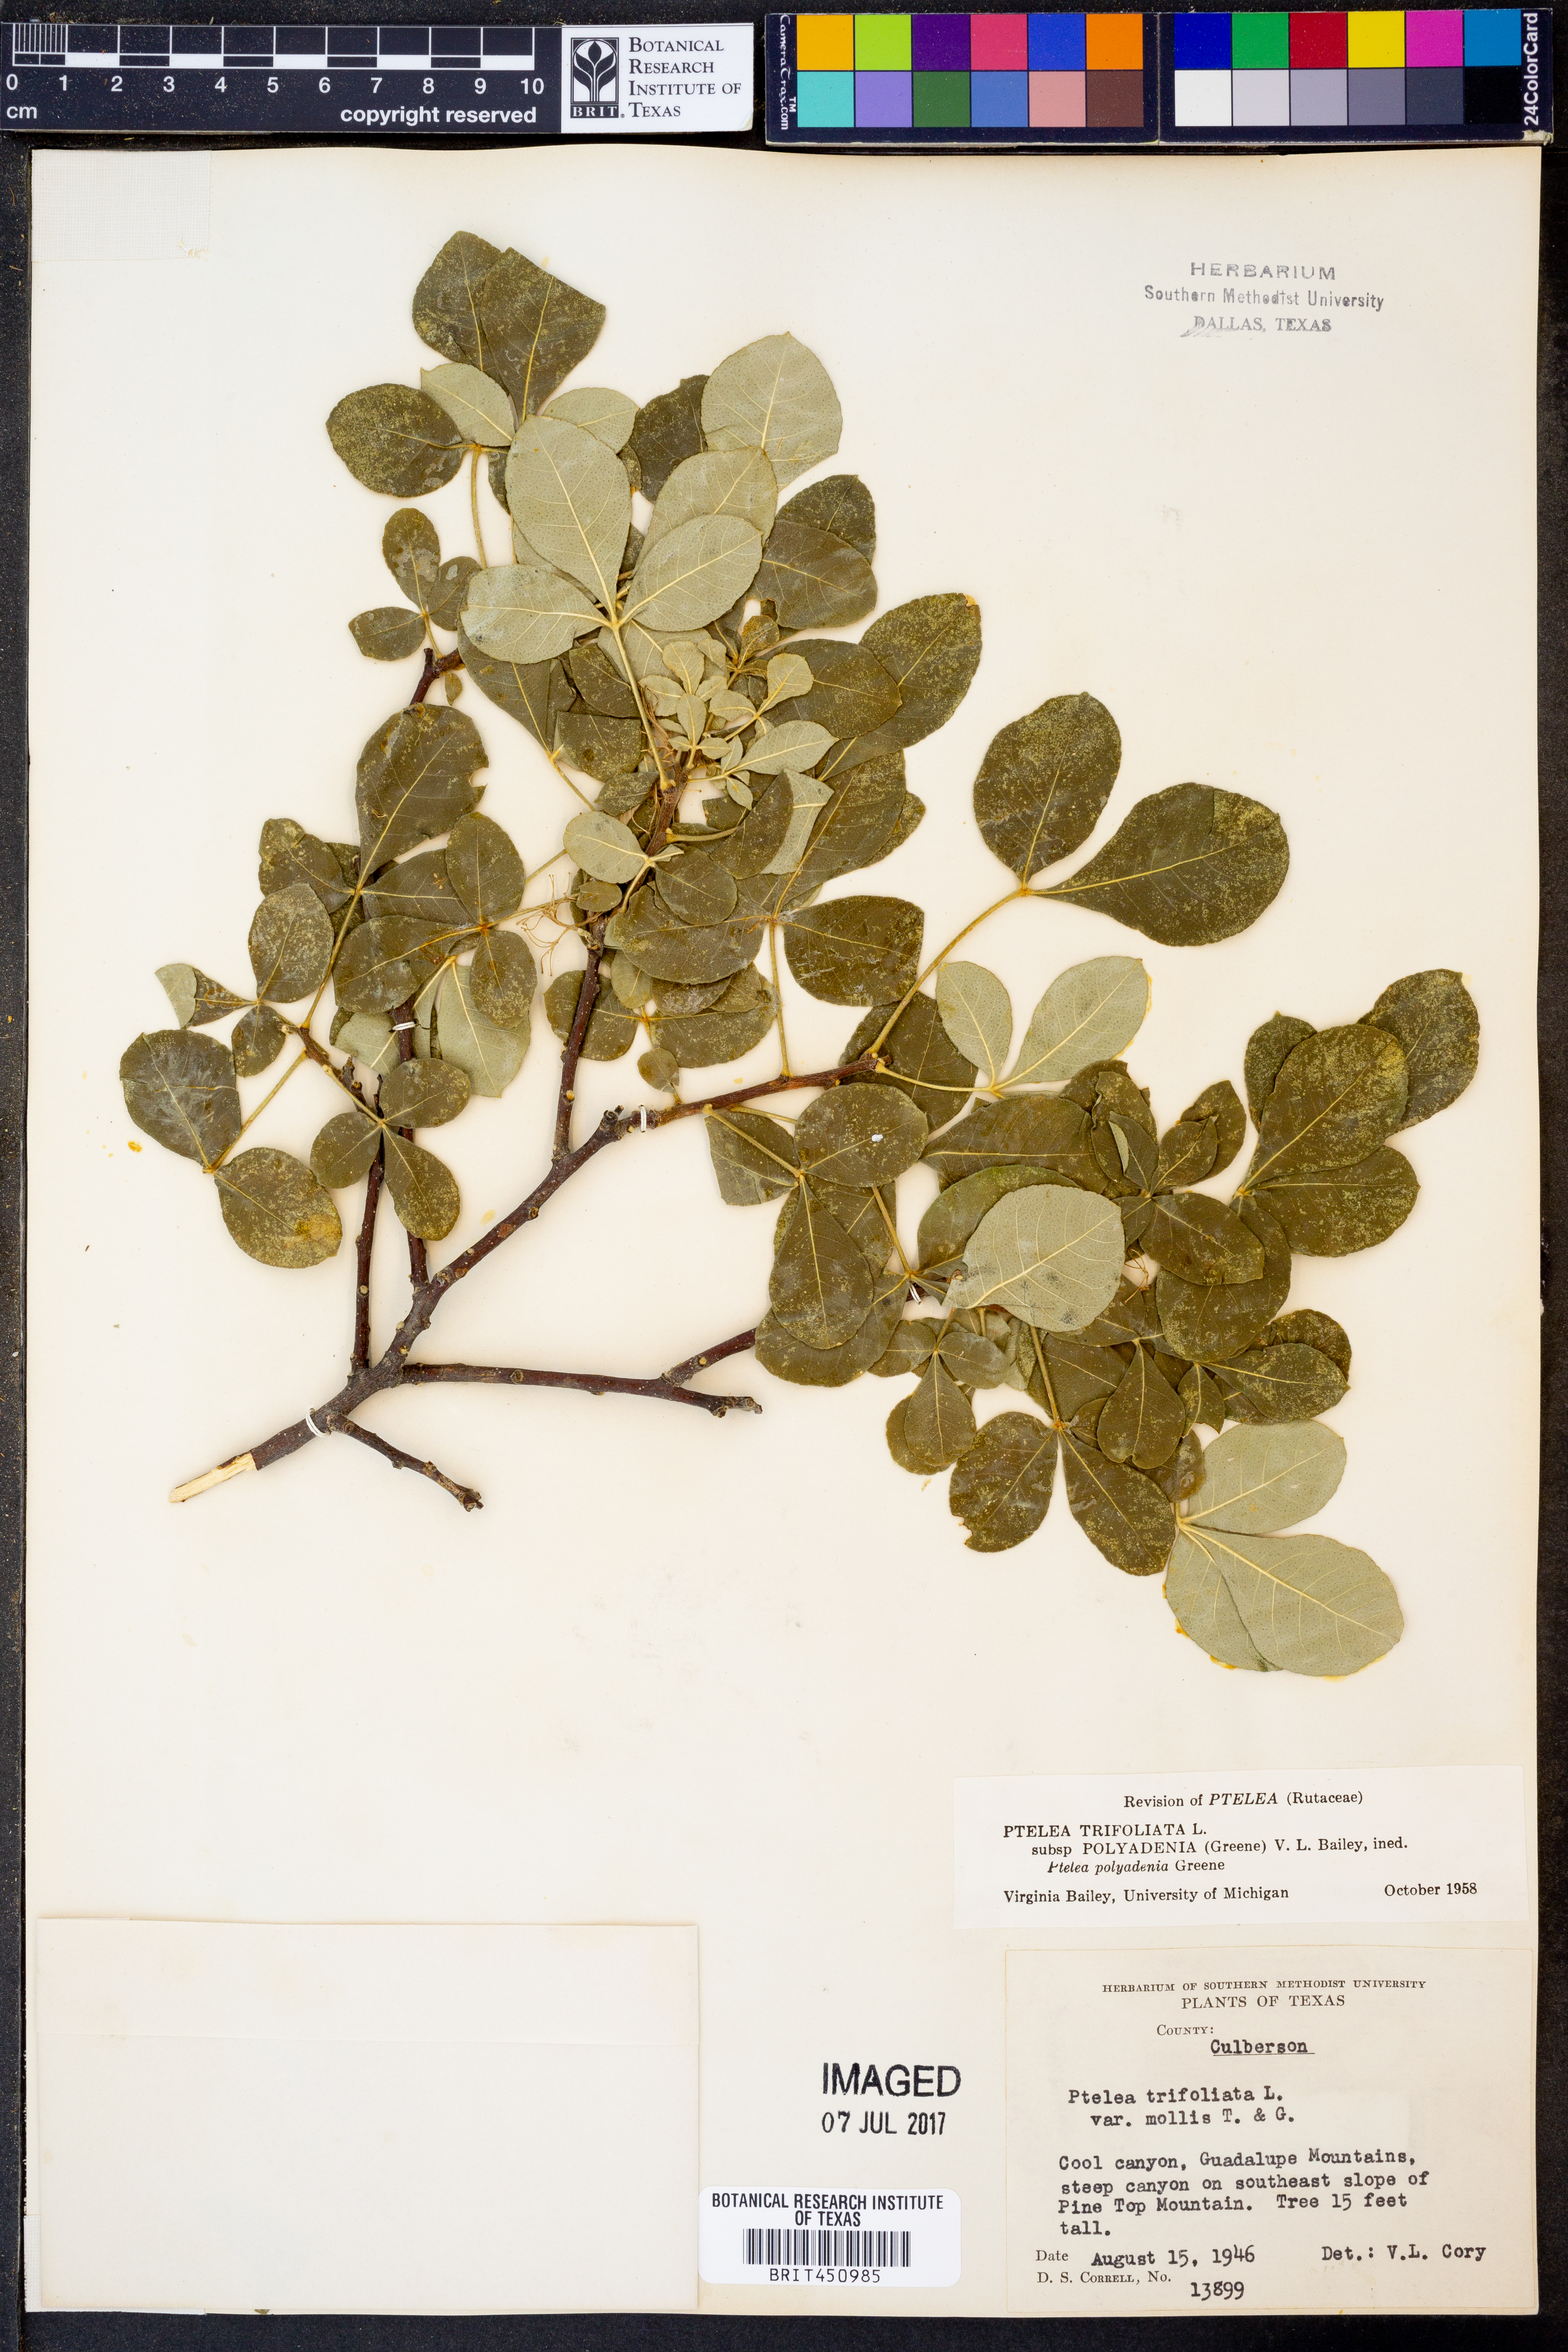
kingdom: Plantae
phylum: Tracheophyta
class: Magnoliopsida
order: Sapindales
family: Rutaceae
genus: Ptelea
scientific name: Ptelea trifoliata
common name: Common hop-tree
